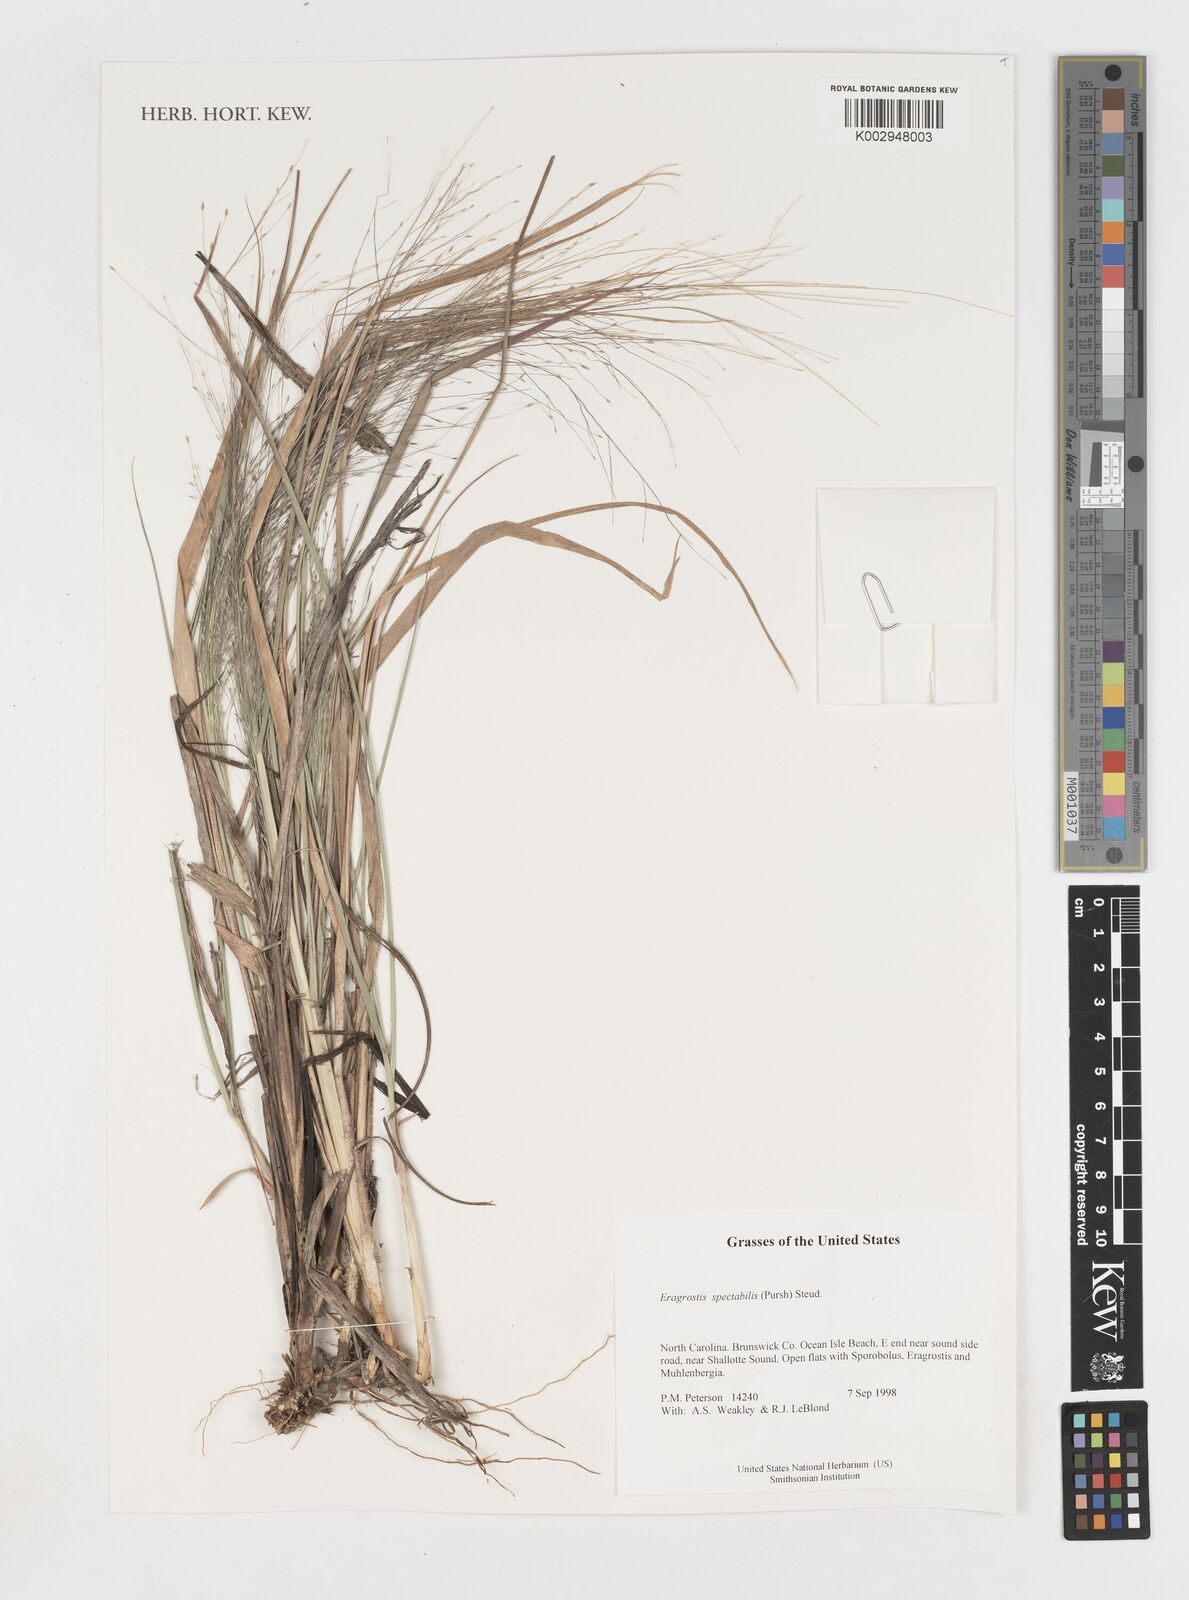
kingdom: Plantae
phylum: Tracheophyta
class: Liliopsida
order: Poales
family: Poaceae
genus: Eragrostis
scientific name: Eragrostis spectabilis
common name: Petticoat-climber
